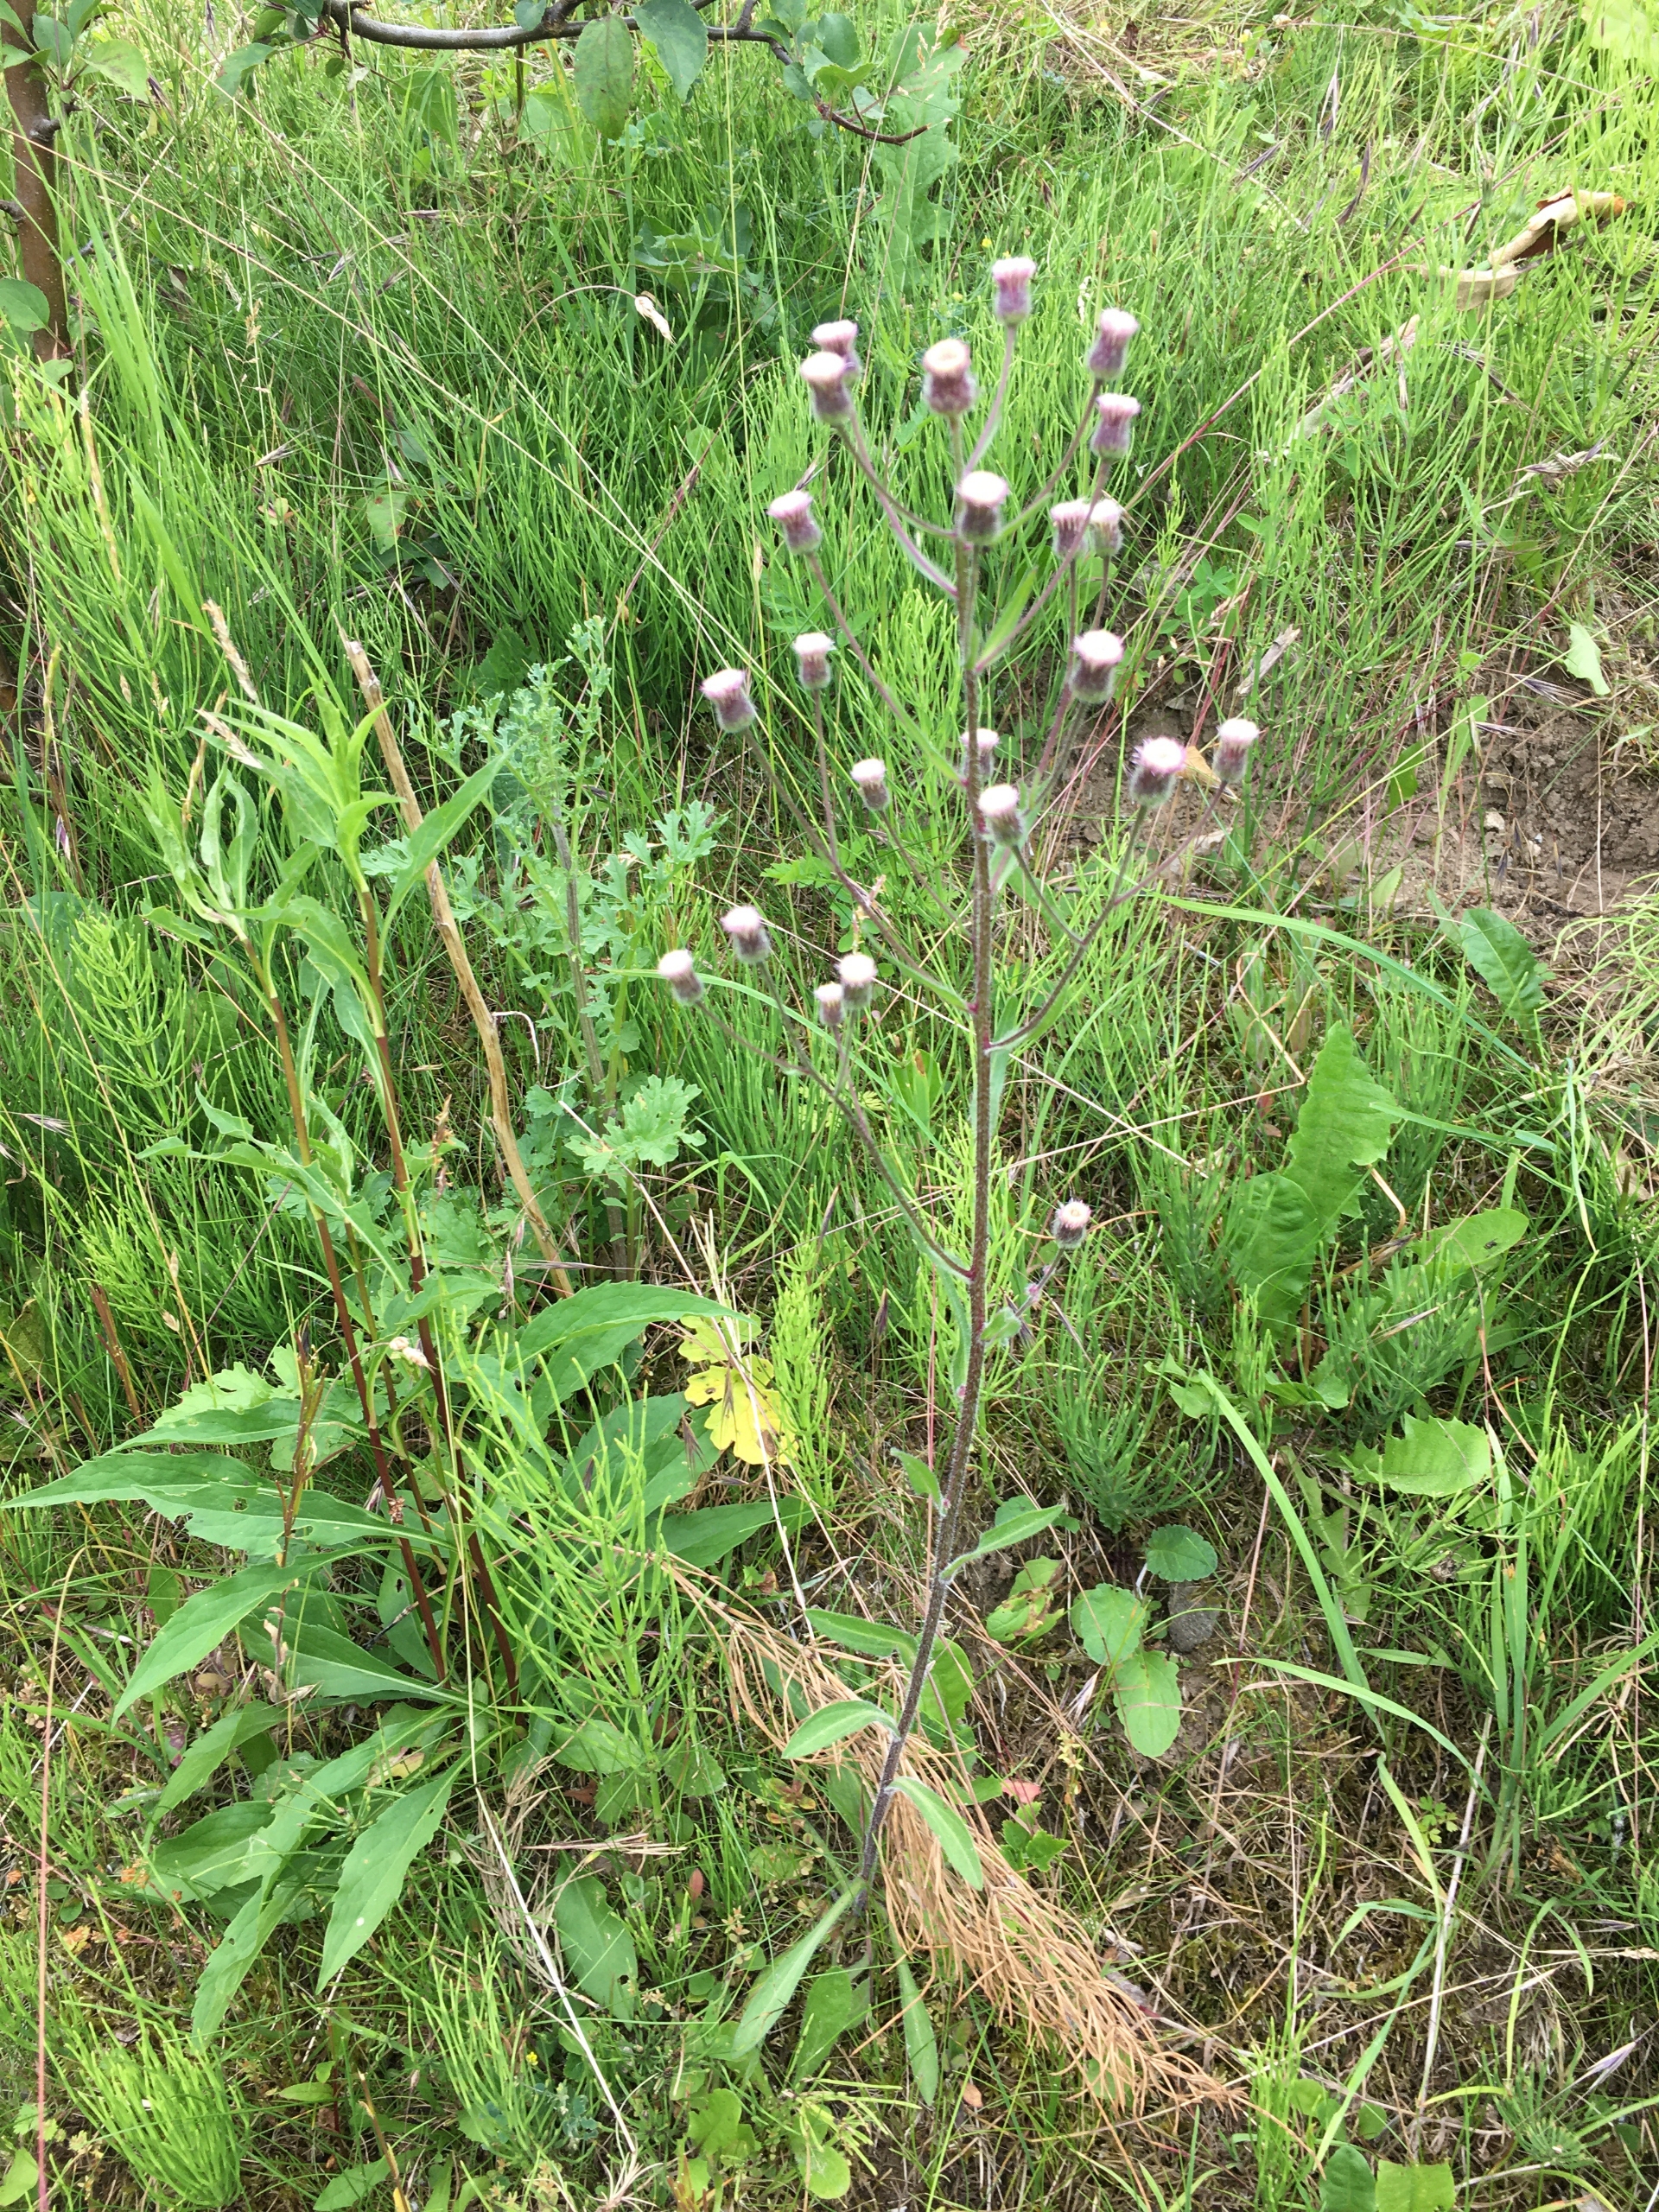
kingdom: Plantae
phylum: Tracheophyta
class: Magnoliopsida
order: Asterales
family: Asteraceae
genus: Erigeron
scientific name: Erigeron acris
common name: Bitter bakkestjerne
